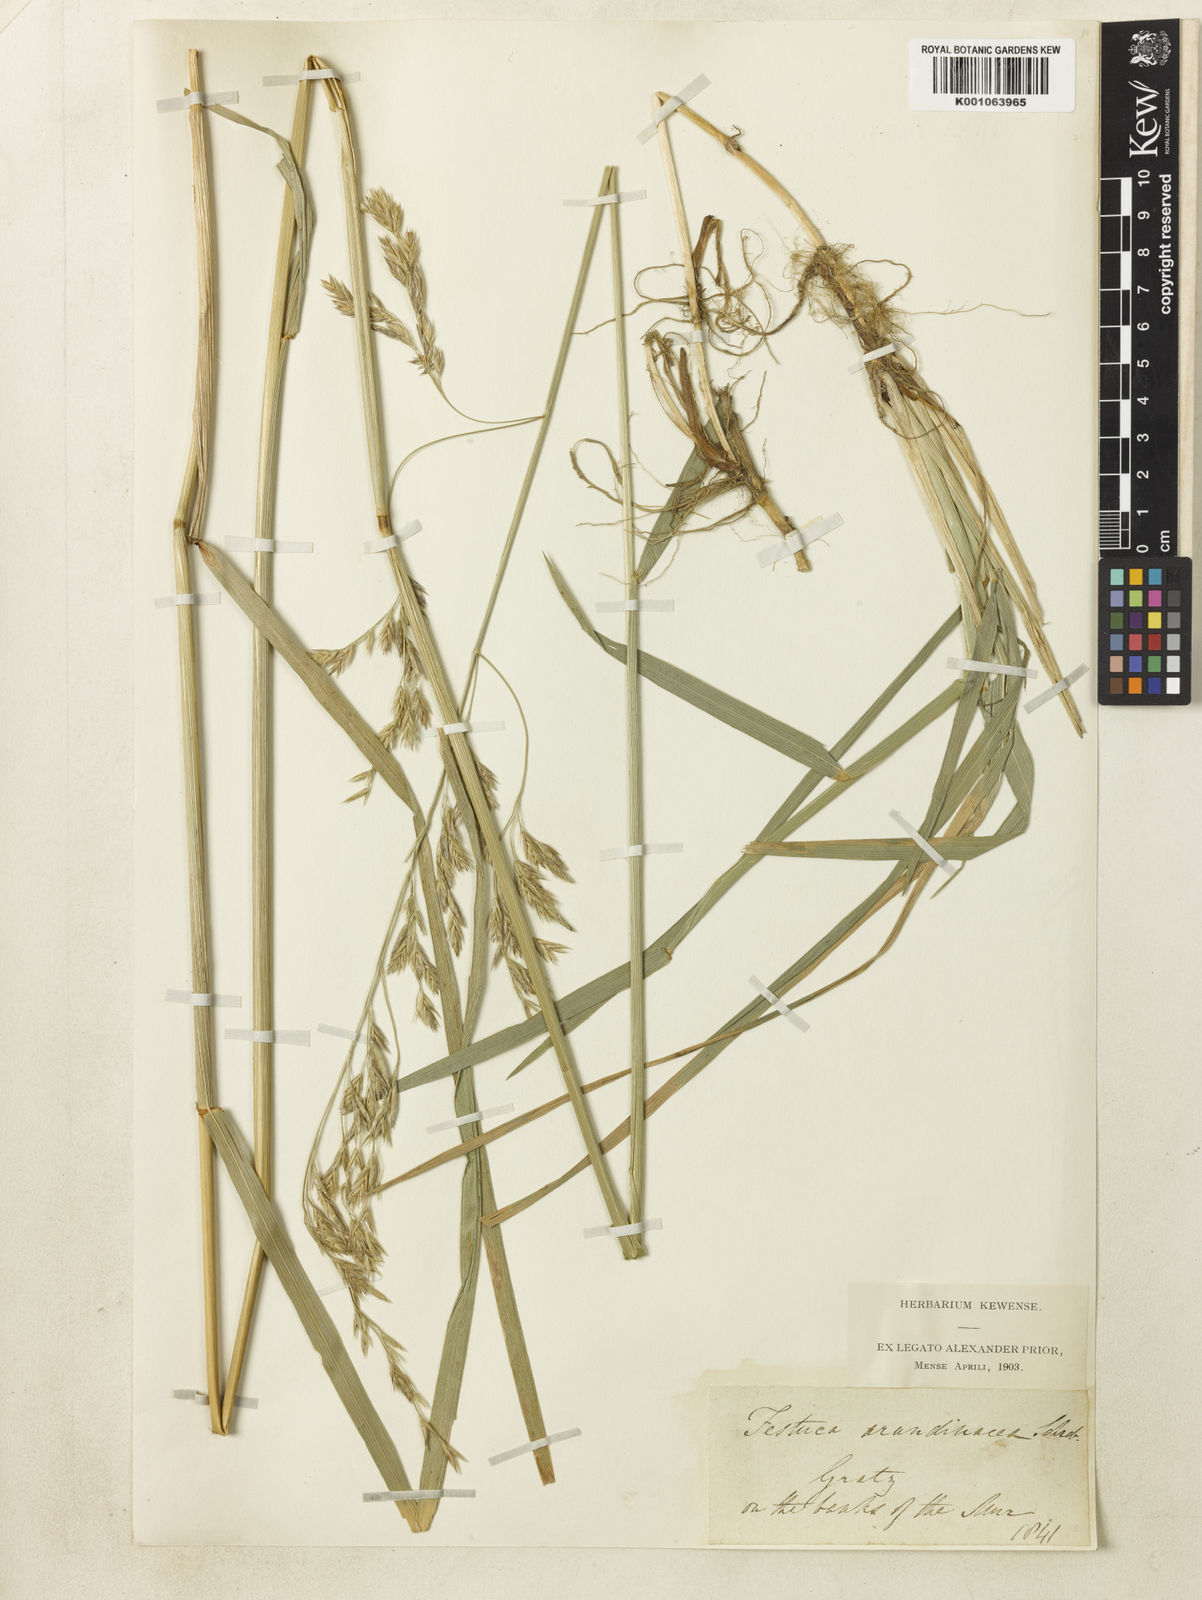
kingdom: Plantae
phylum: Tracheophyta
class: Liliopsida
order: Poales
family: Poaceae
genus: Lolium
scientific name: Lolium arundinaceum
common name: Reed fescue
